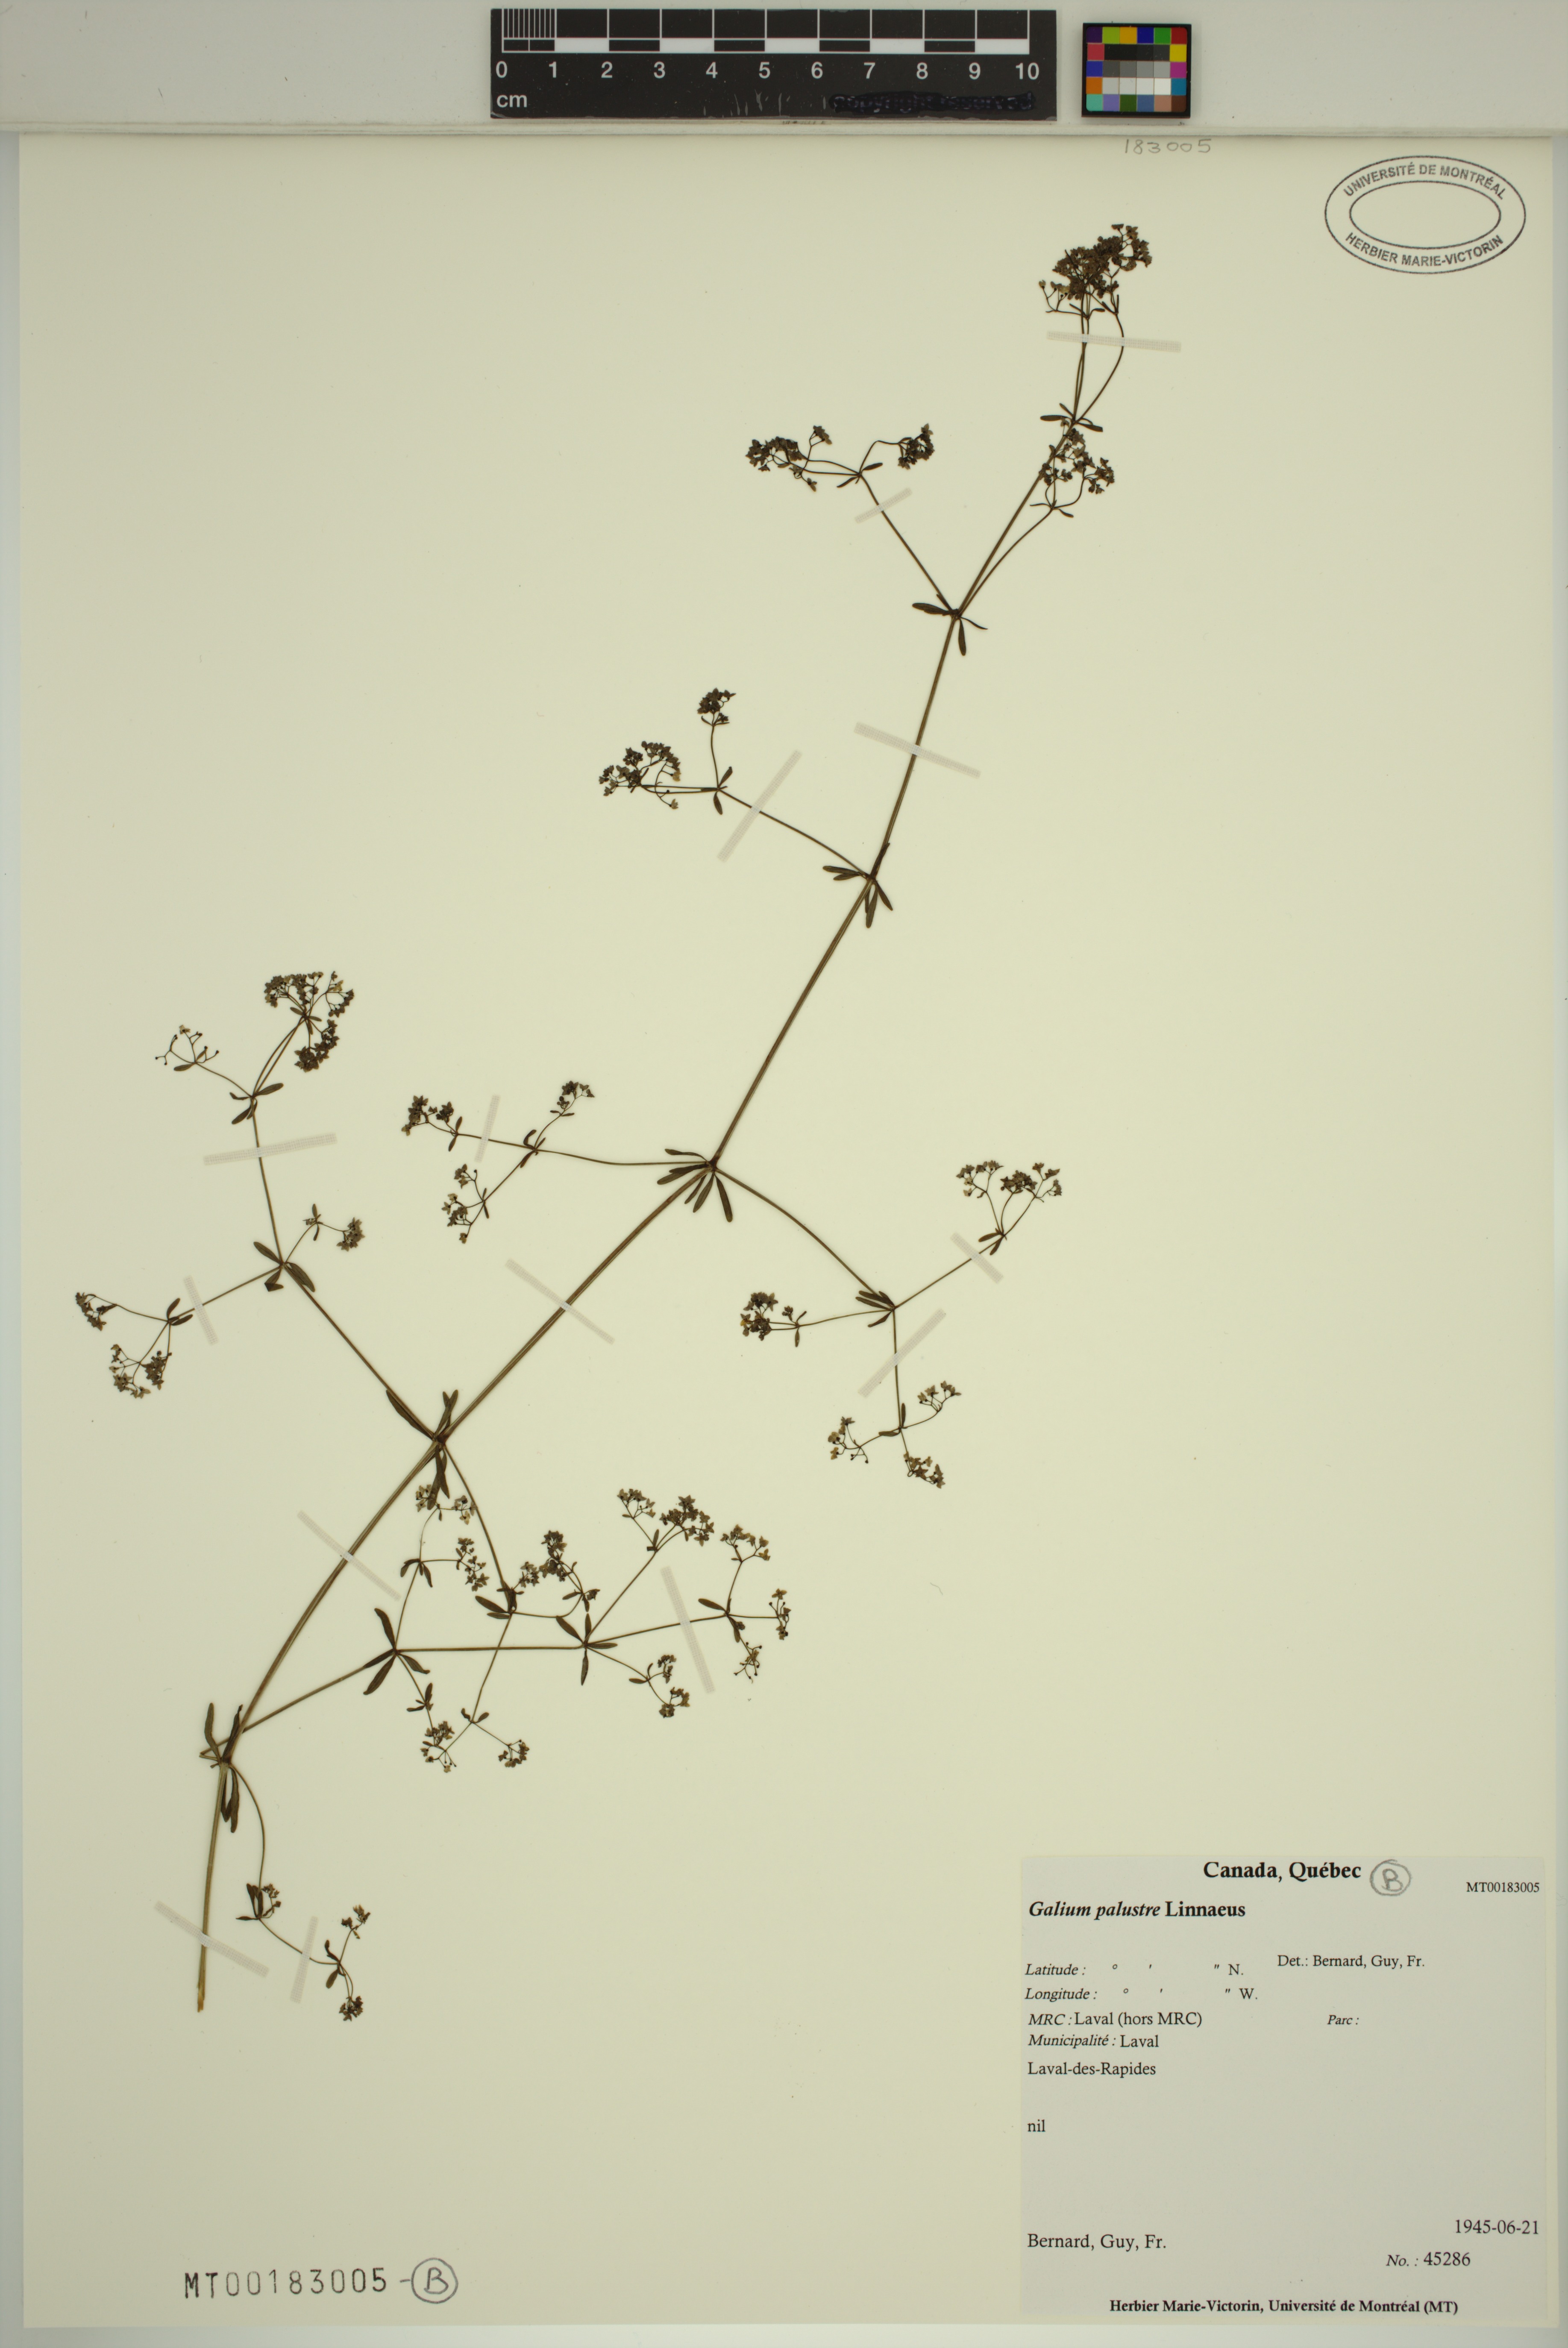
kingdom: Plantae
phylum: Tracheophyta
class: Magnoliopsida
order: Gentianales
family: Rubiaceae
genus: Galium
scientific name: Galium palustre
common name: Common marsh-bedstraw
